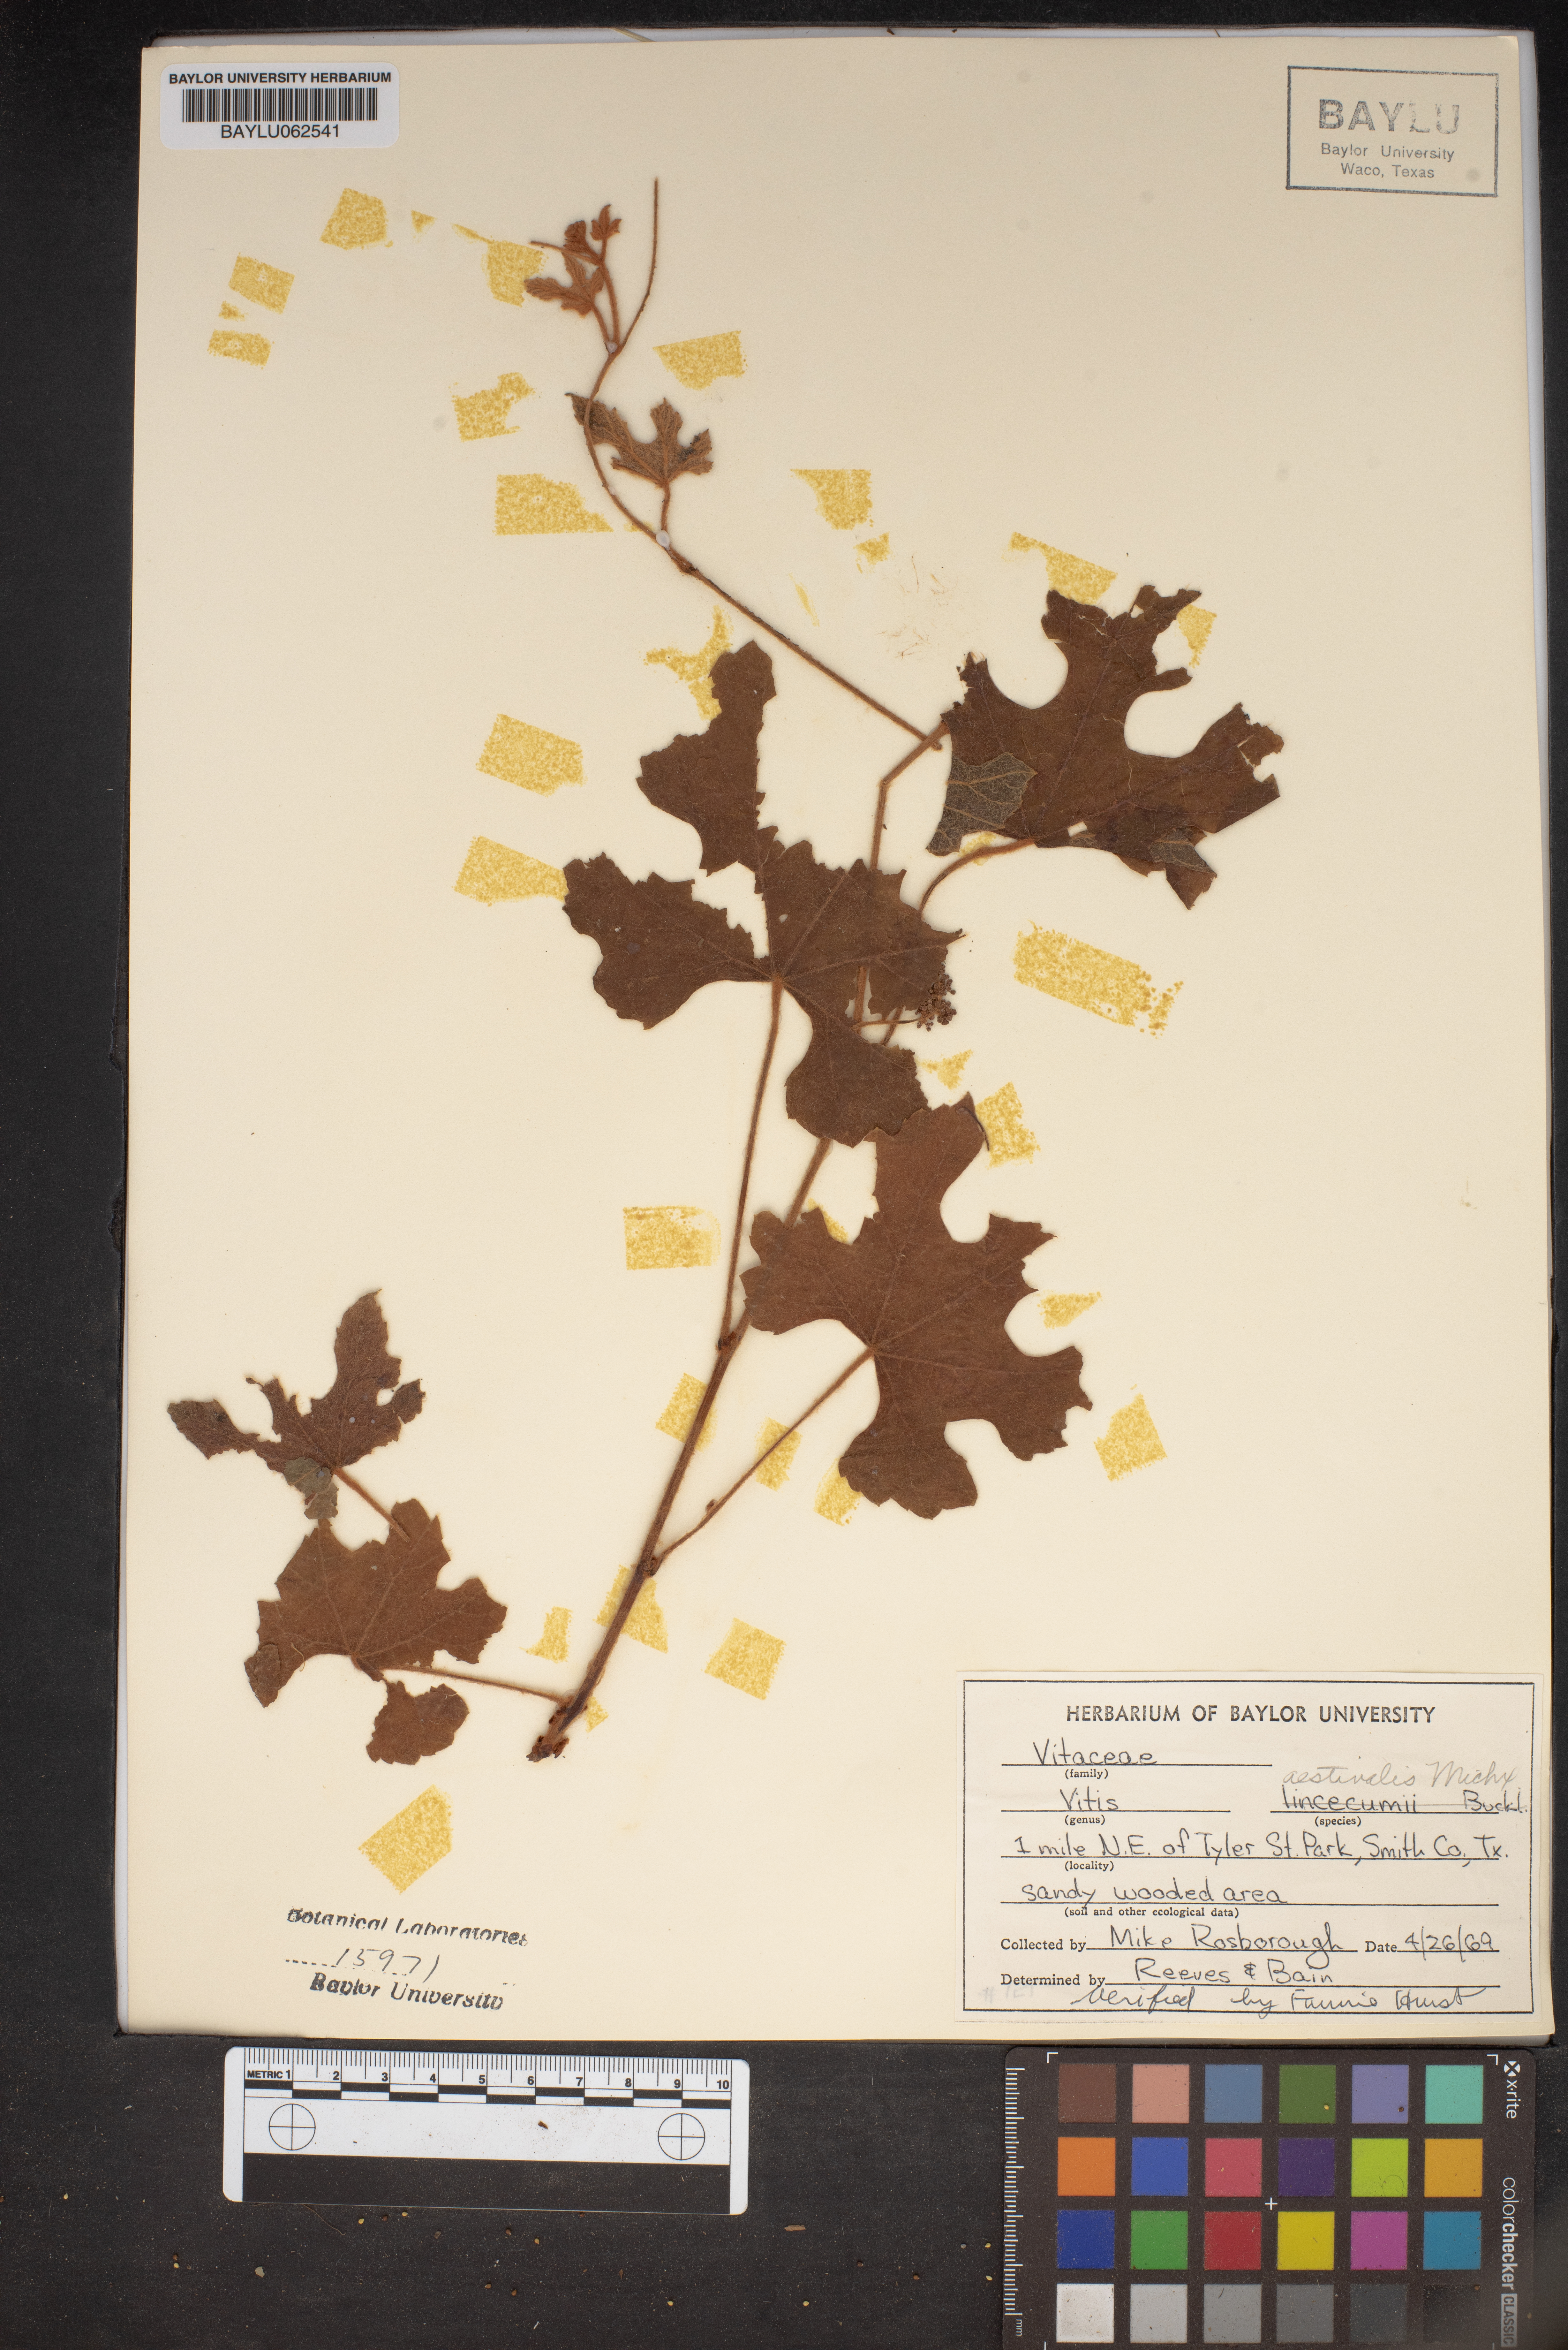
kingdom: Plantae
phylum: Tracheophyta
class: Magnoliopsida
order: Vitales
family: Vitaceae
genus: Vitis
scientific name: Vitis aestivalis
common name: Pigeon grape
